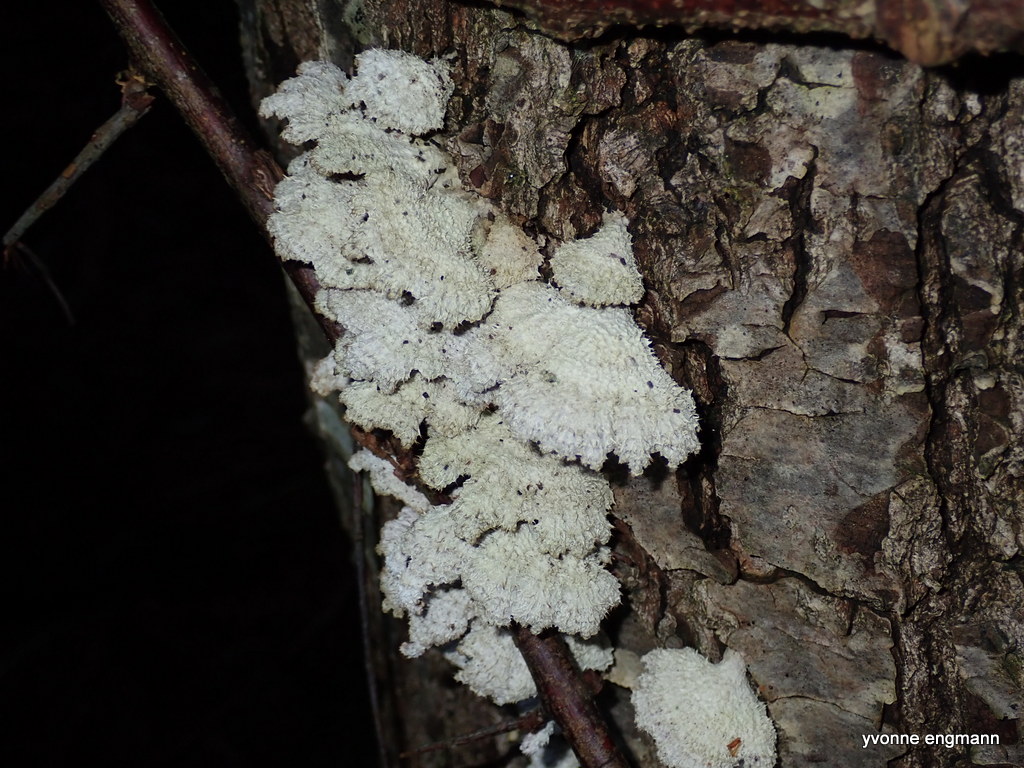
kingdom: Fungi
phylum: Basidiomycota
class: Agaricomycetes
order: Agaricales
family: Schizophyllaceae
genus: Schizophyllum
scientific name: Schizophyllum commune
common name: kløvblad
